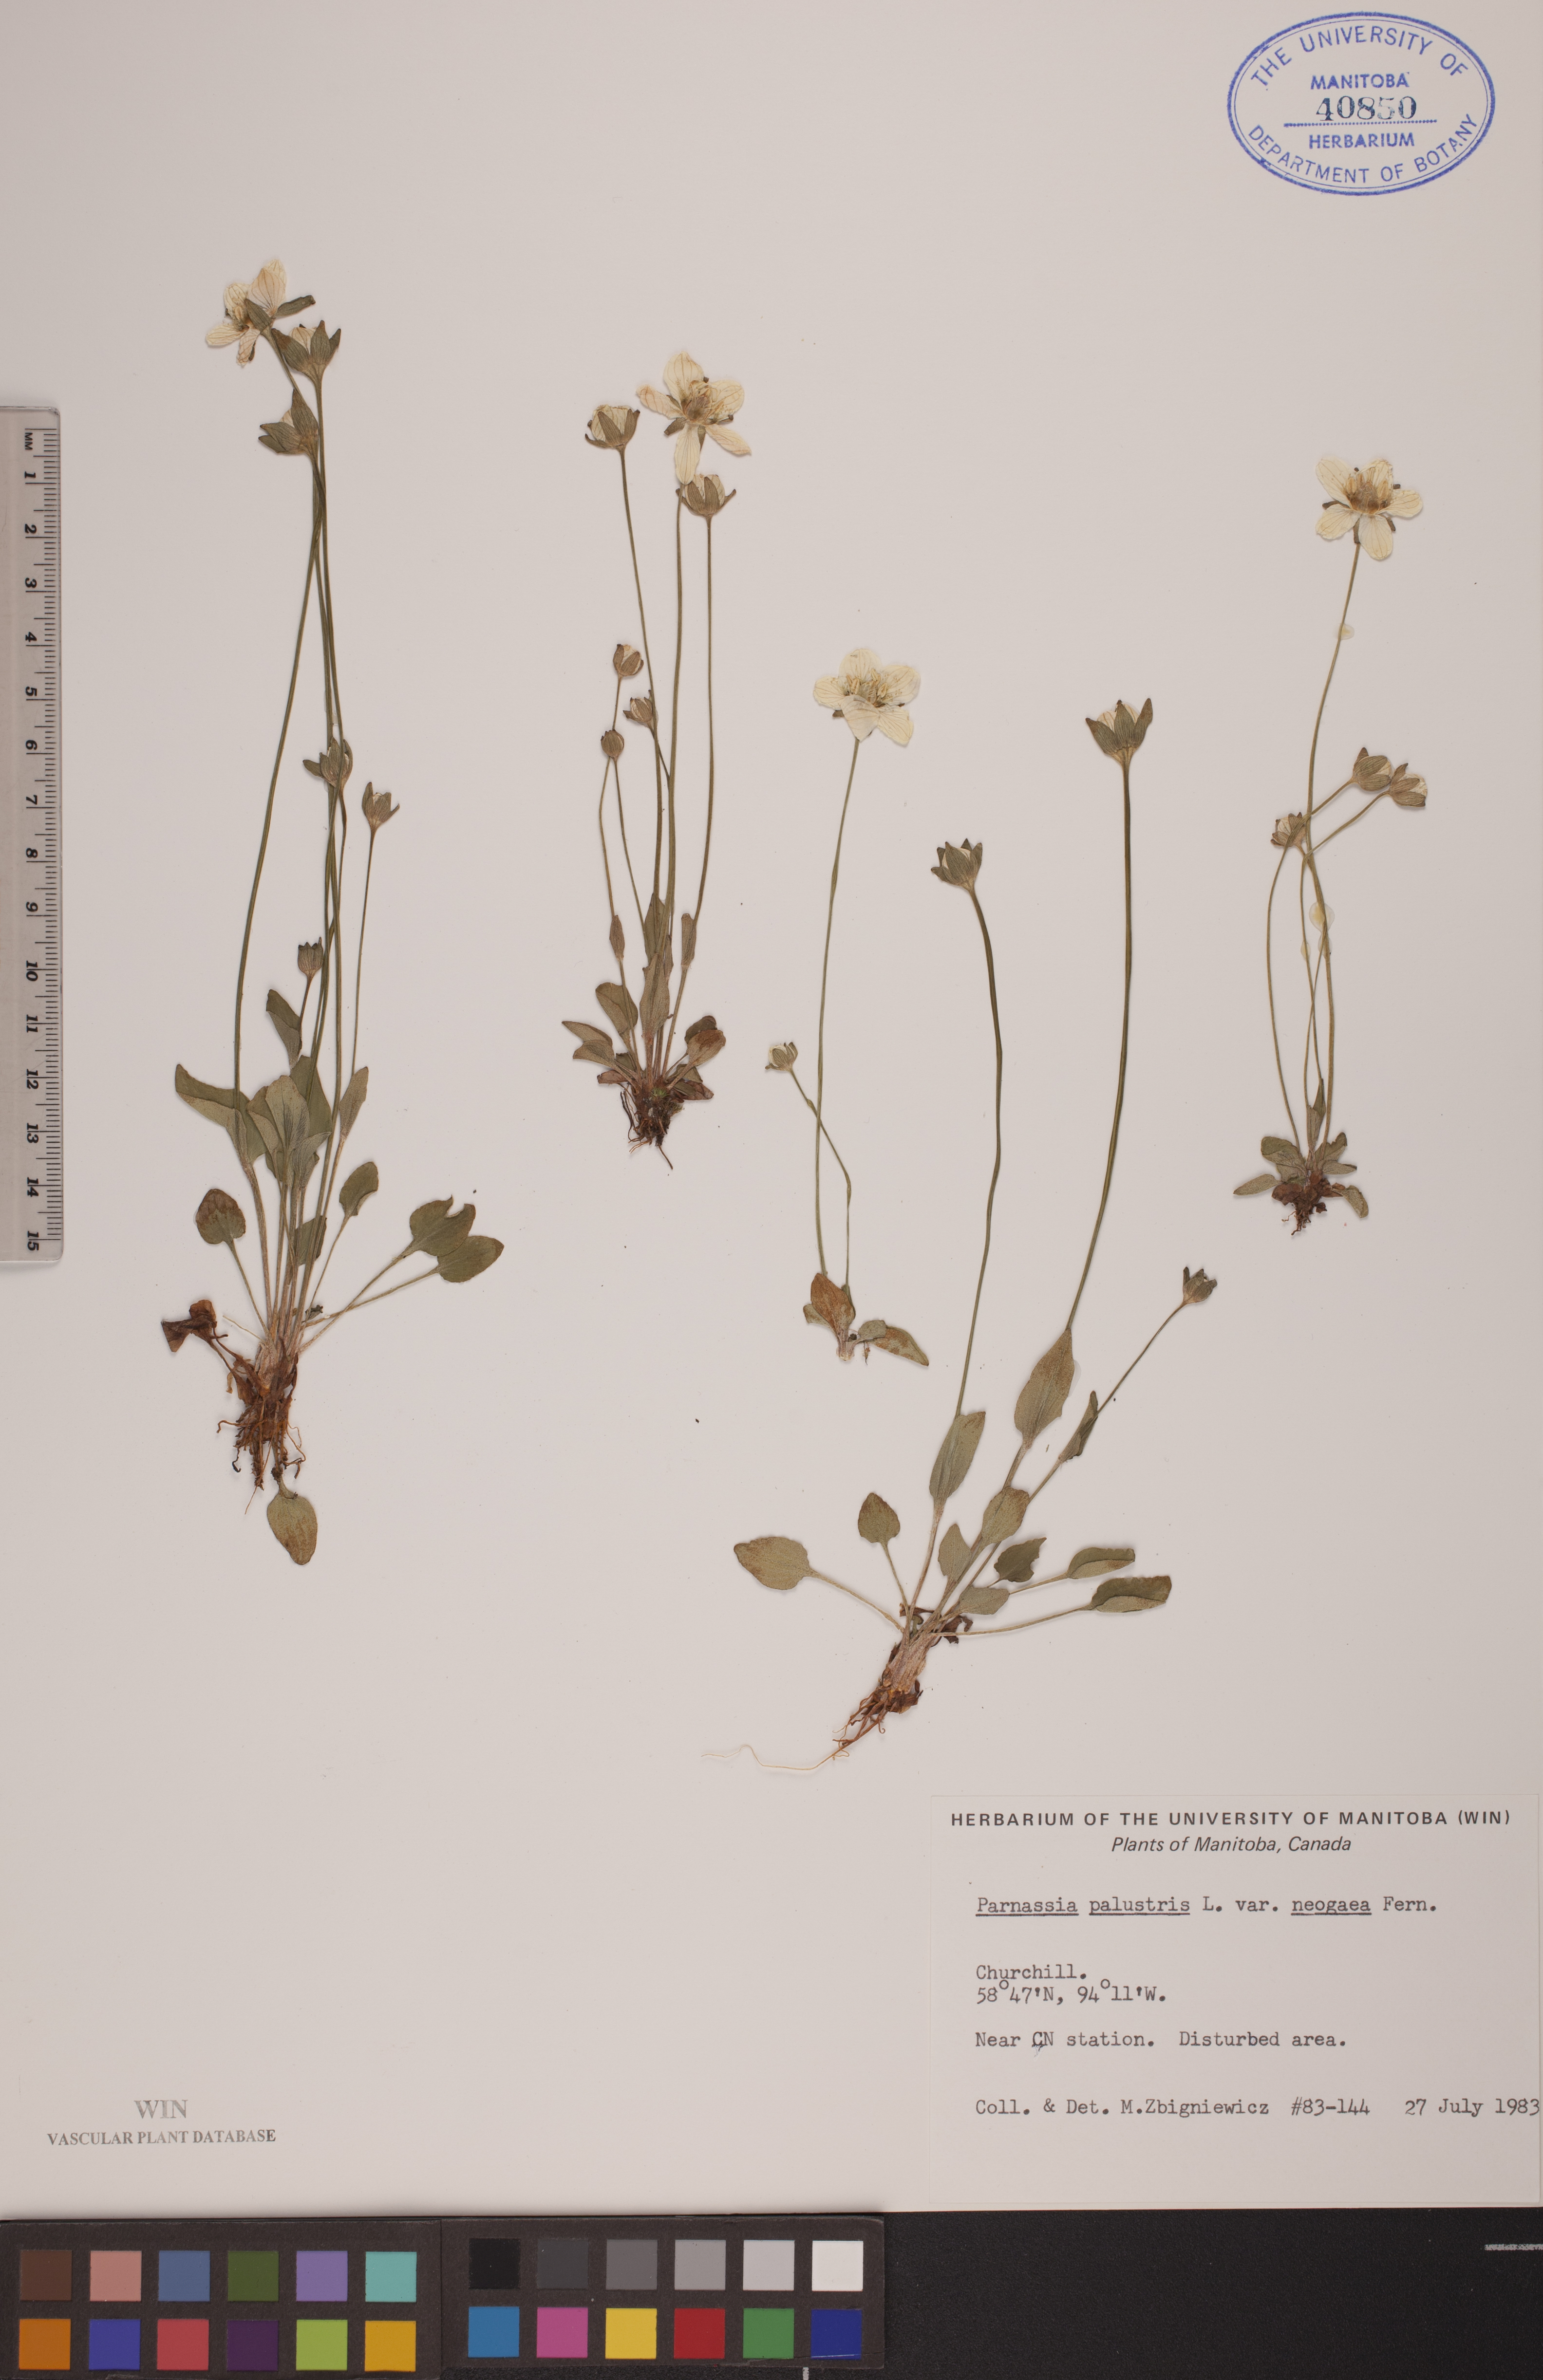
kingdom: Plantae
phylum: Tracheophyta
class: Magnoliopsida
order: Celastrales
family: Parnassiaceae
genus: Parnassia
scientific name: Parnassia palustris
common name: Grass-of-parnassus
